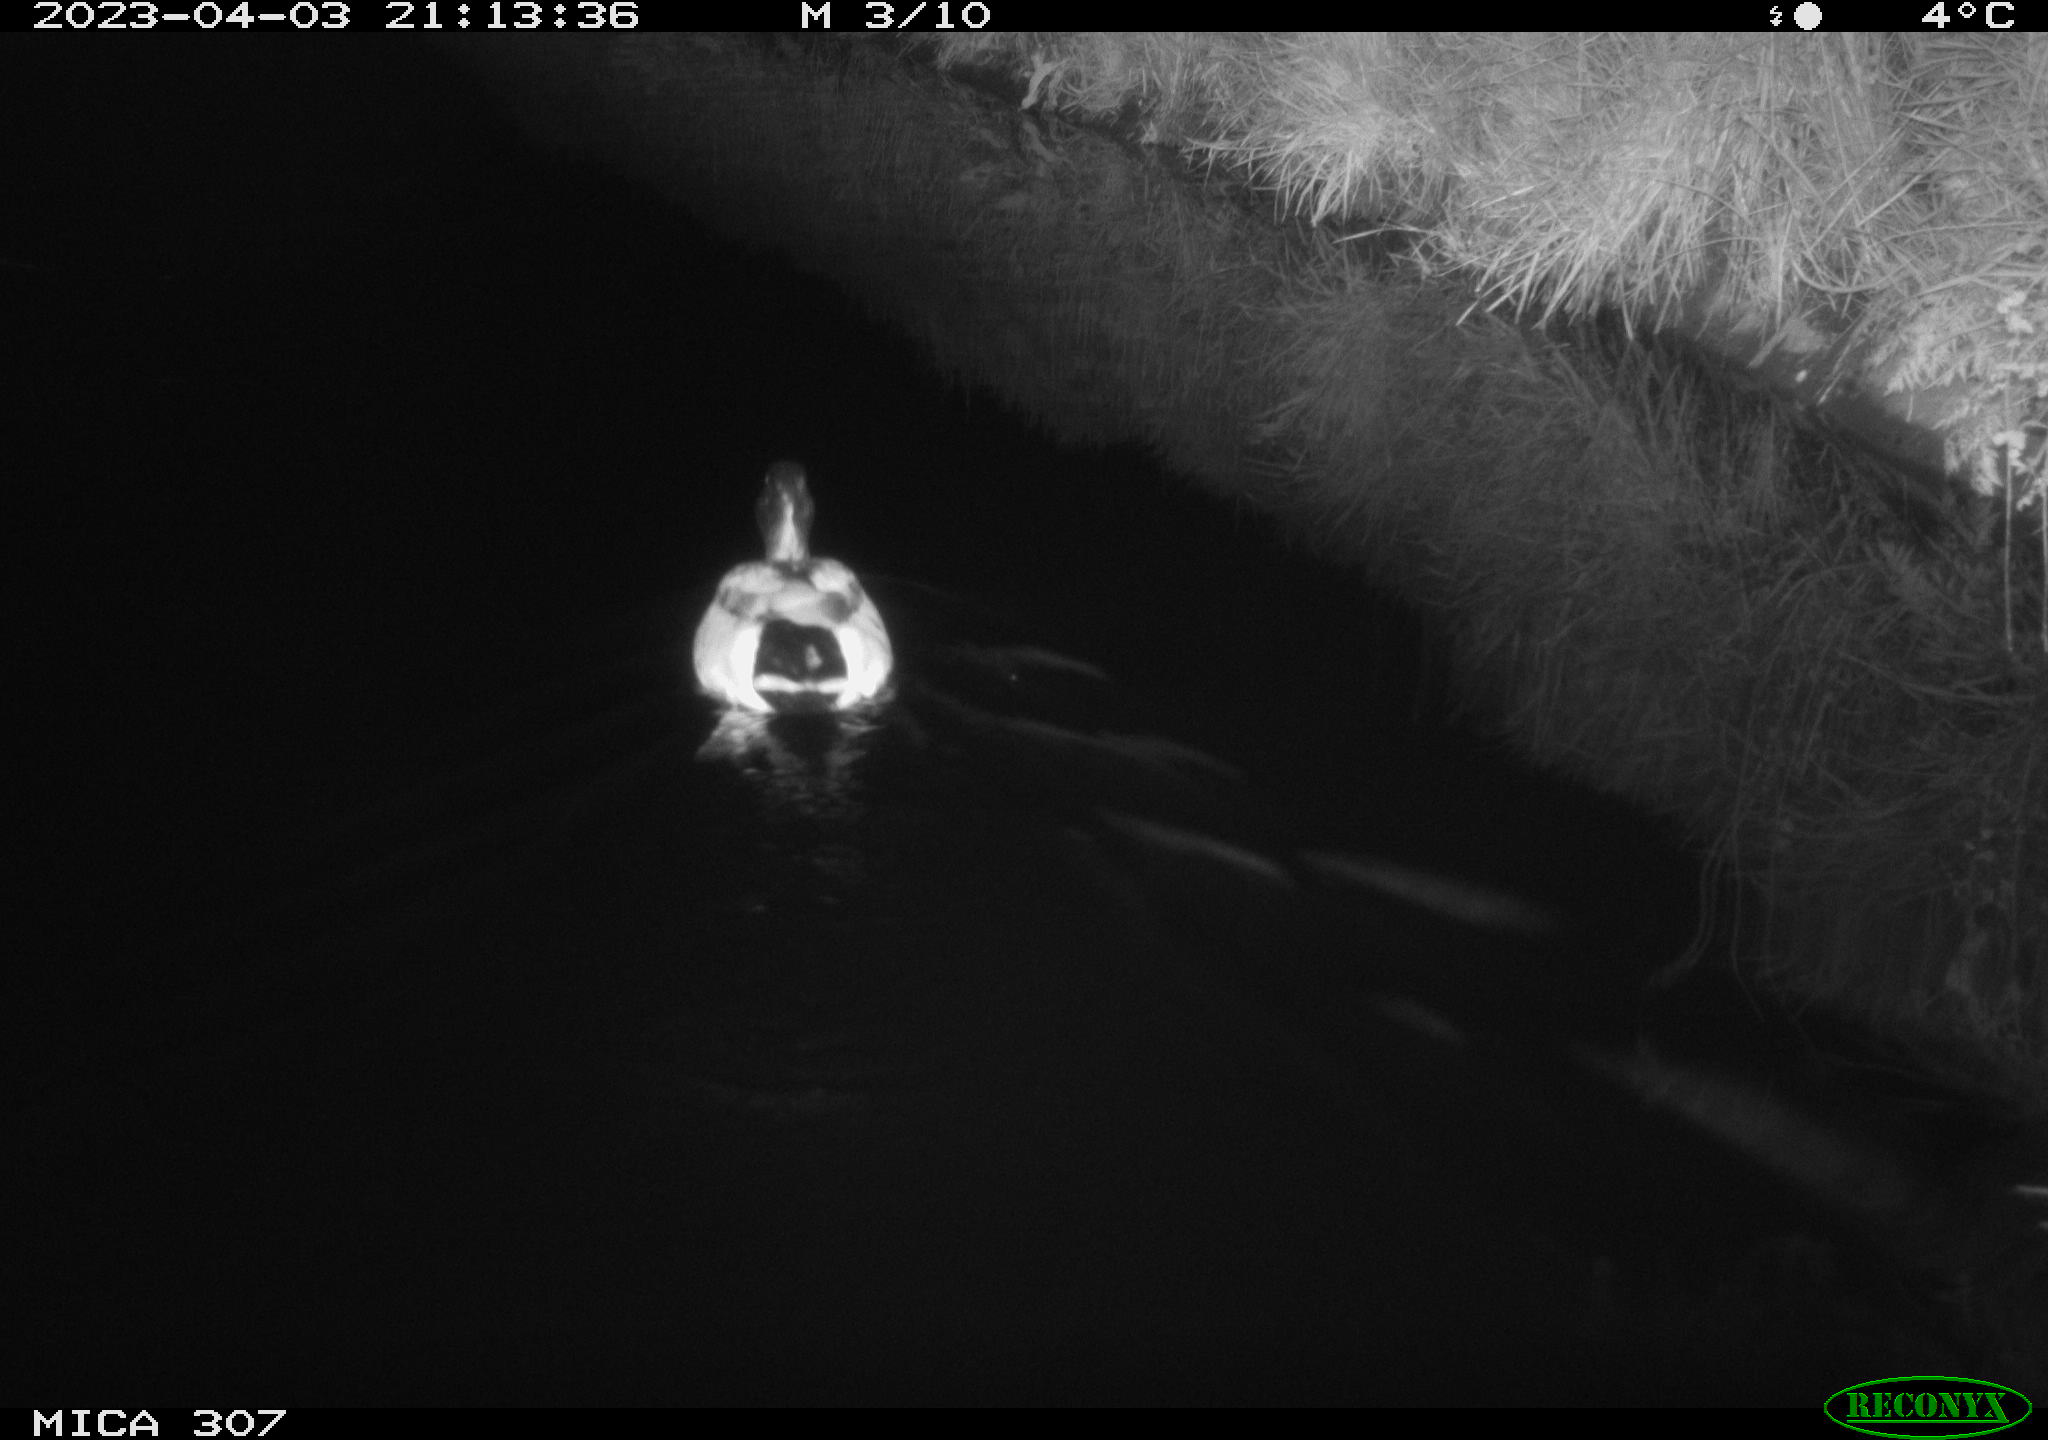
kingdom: Animalia
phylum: Chordata
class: Aves
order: Anseriformes
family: Anatidae
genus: Anas
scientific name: Anas
